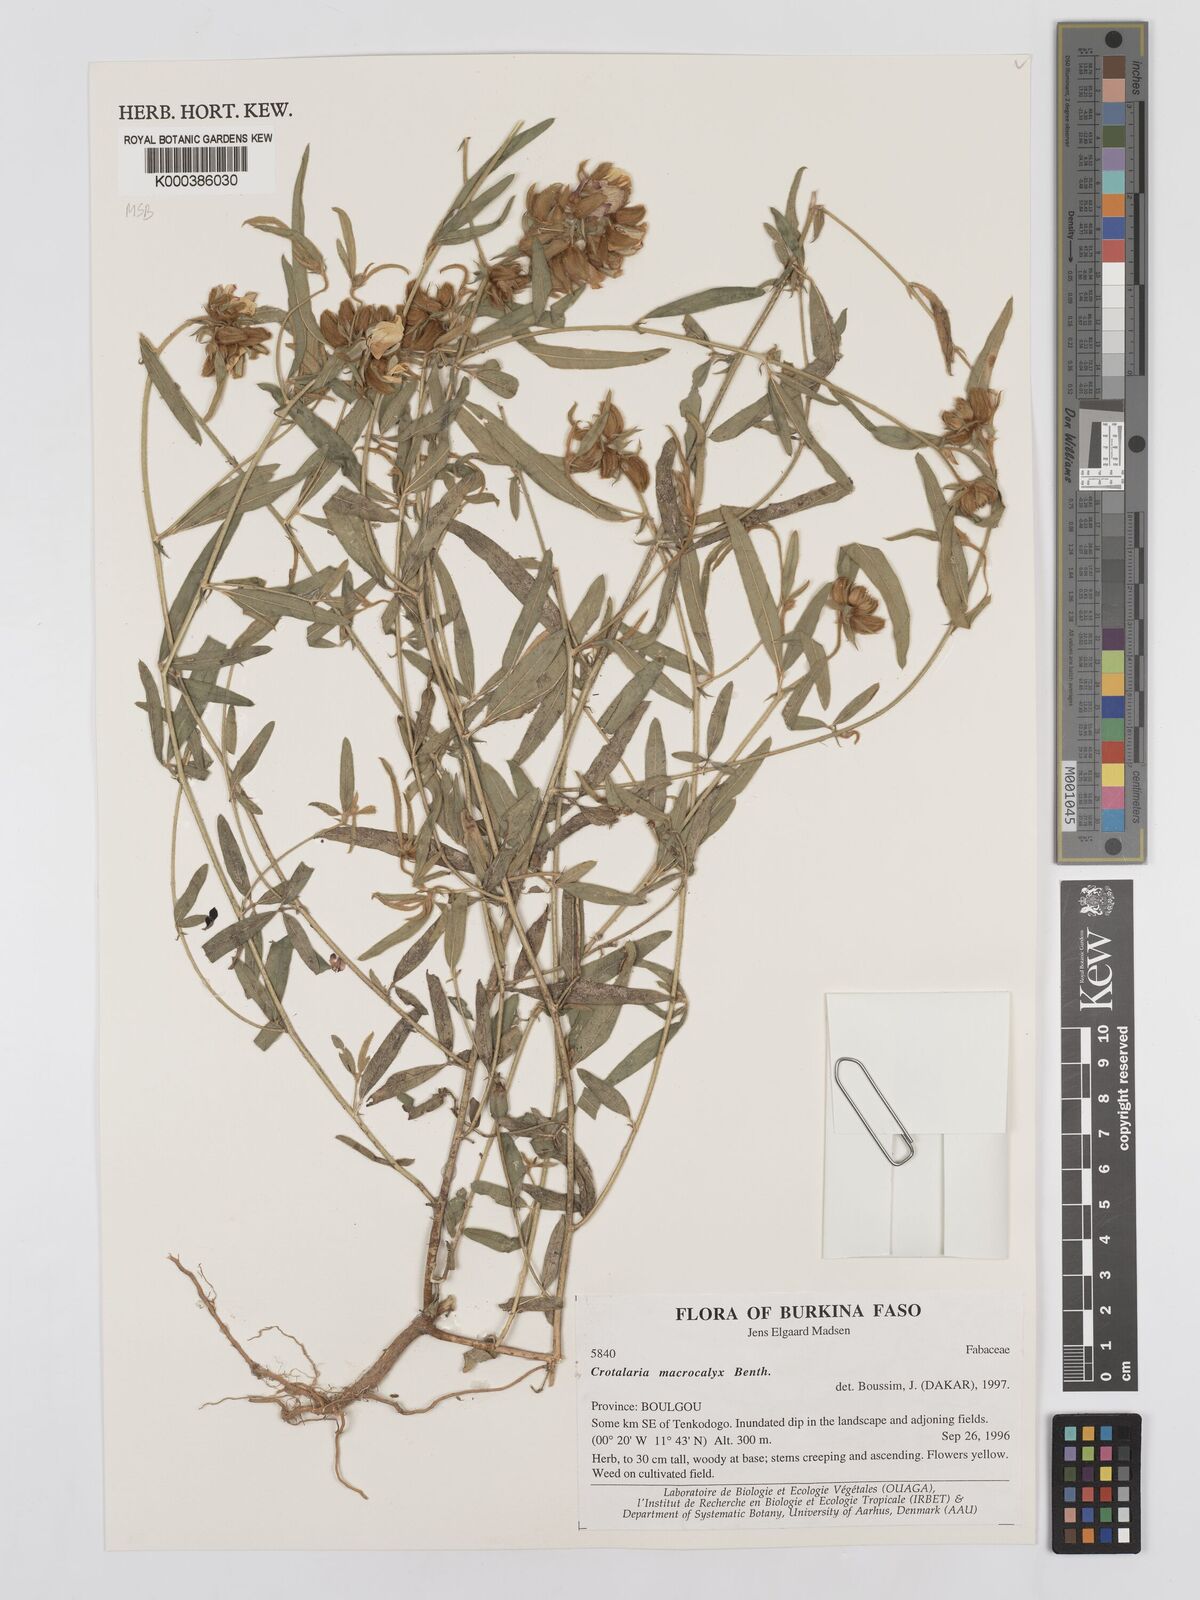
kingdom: Plantae
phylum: Tracheophyta
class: Magnoliopsida
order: Fabales
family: Fabaceae
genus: Crotalaria
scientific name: Crotalaria macrocalyx
